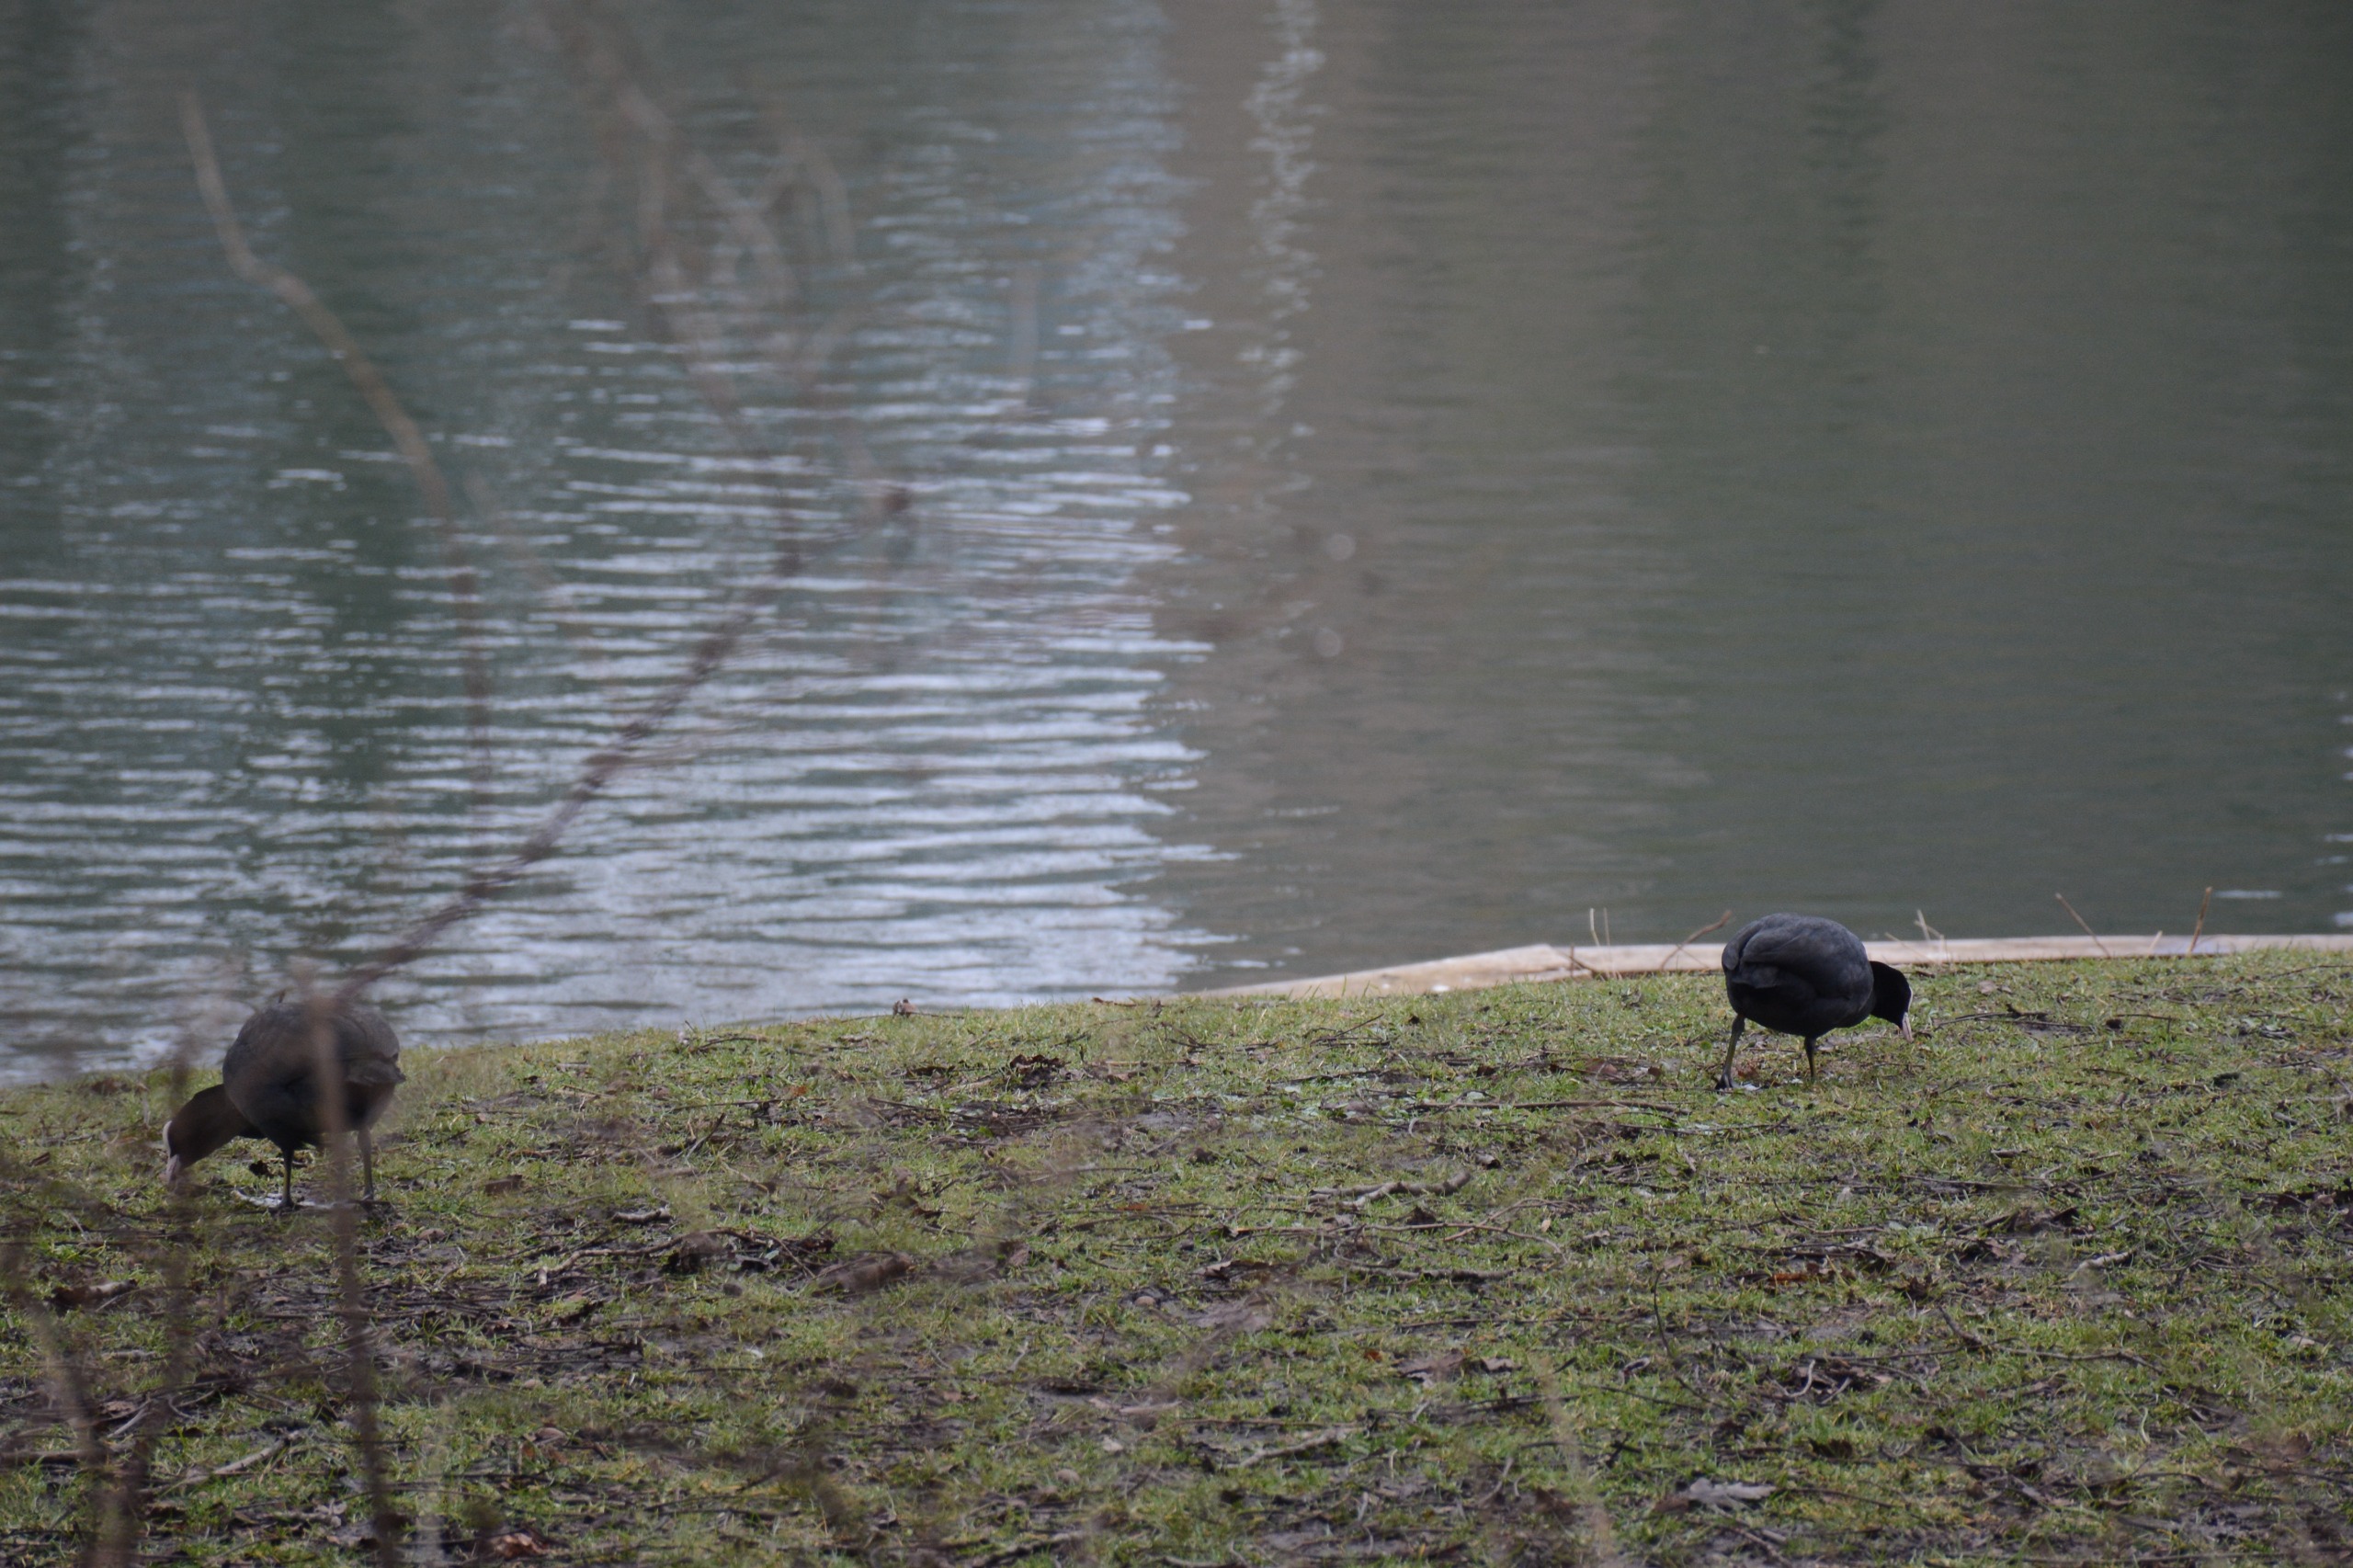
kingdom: Animalia
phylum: Chordata
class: Aves
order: Gruiformes
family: Rallidae
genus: Fulica
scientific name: Fulica atra
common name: Blishøne
